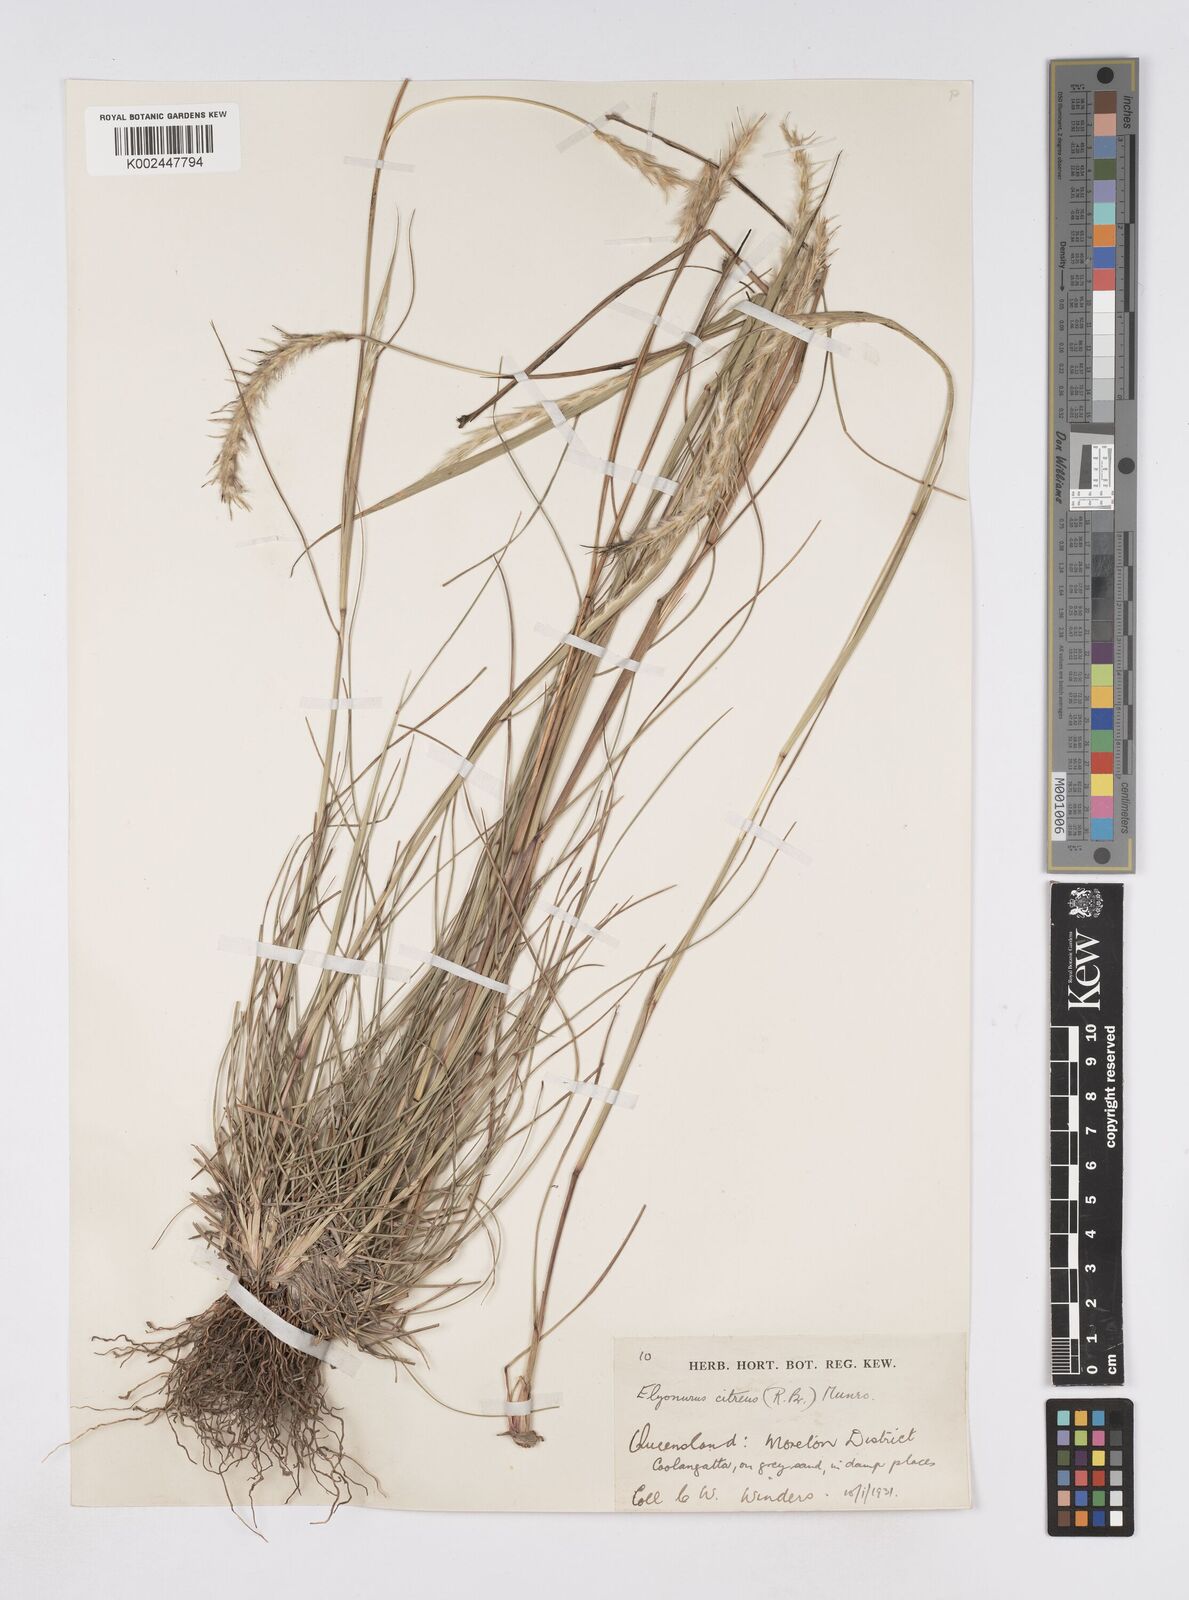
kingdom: Plantae
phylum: Tracheophyta
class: Liliopsida
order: Poales
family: Poaceae
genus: Elionurus
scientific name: Elionurus citreus
